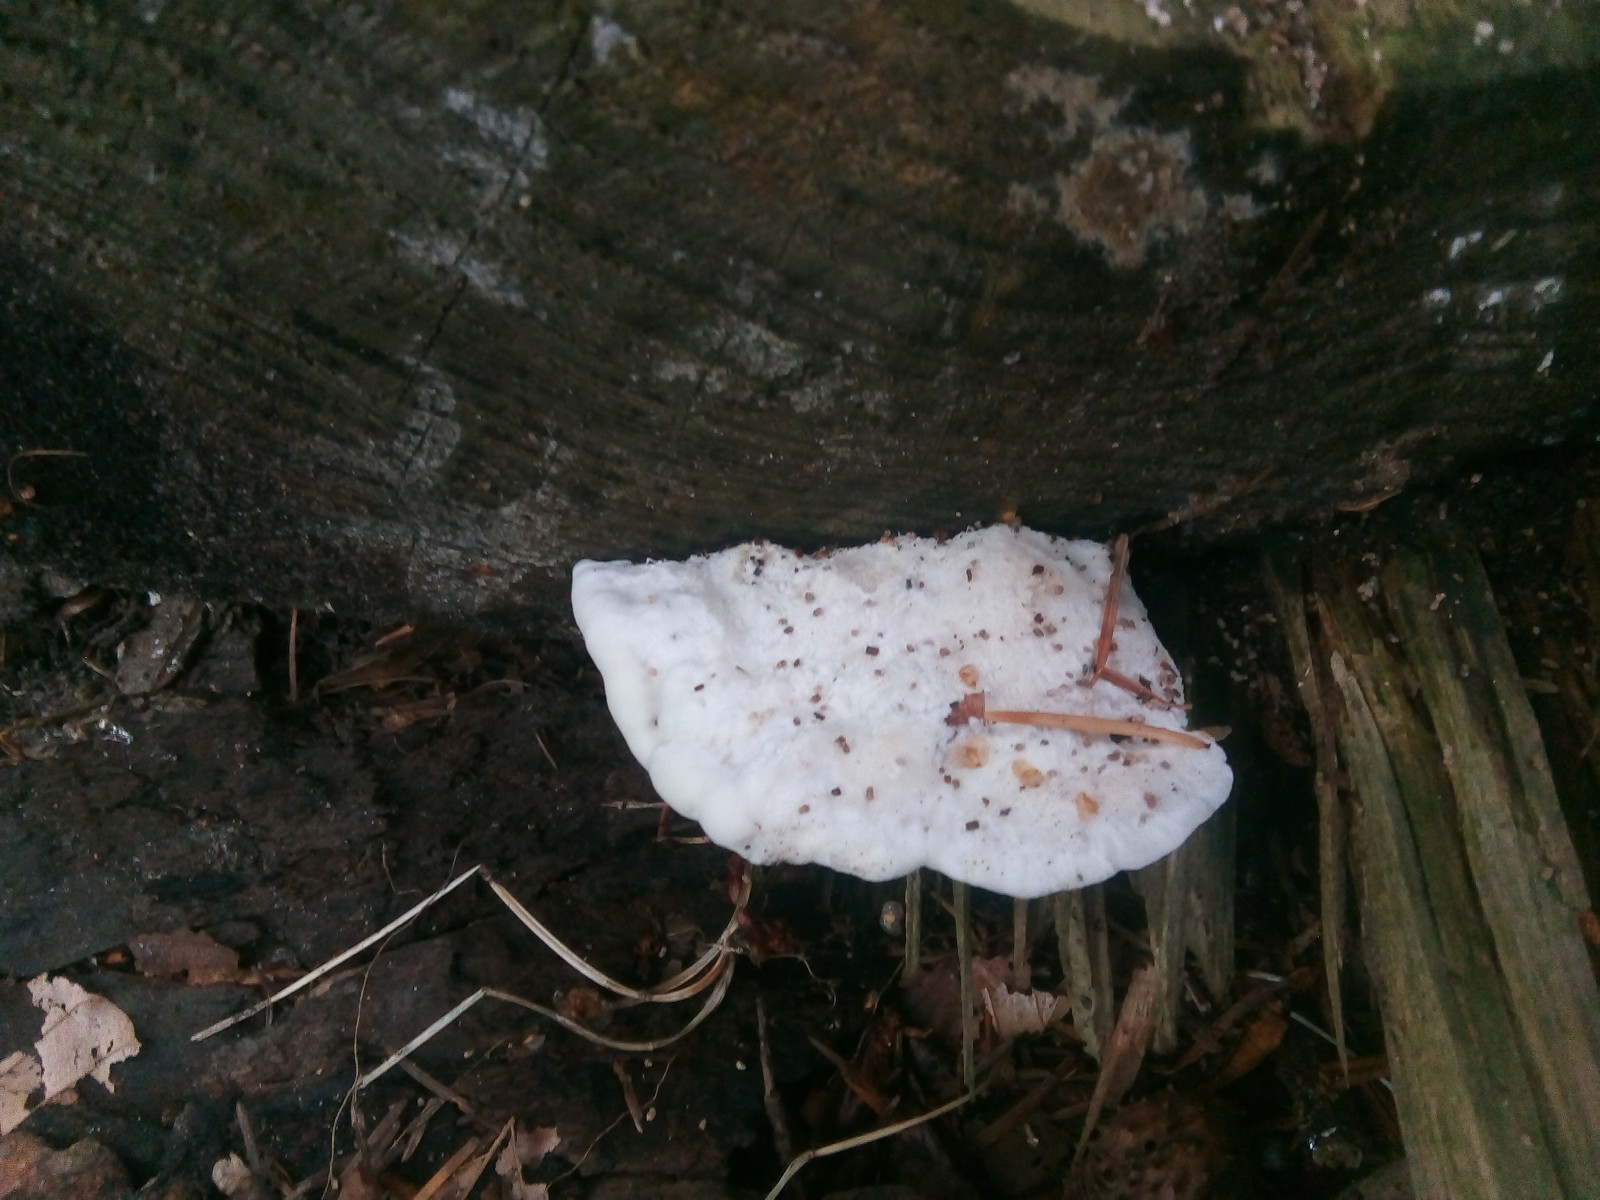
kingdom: Fungi
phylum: Basidiomycota
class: Agaricomycetes
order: Polyporales
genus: Amaropostia
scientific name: Amaropostia stiptica
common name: bitter kødporesvamp
